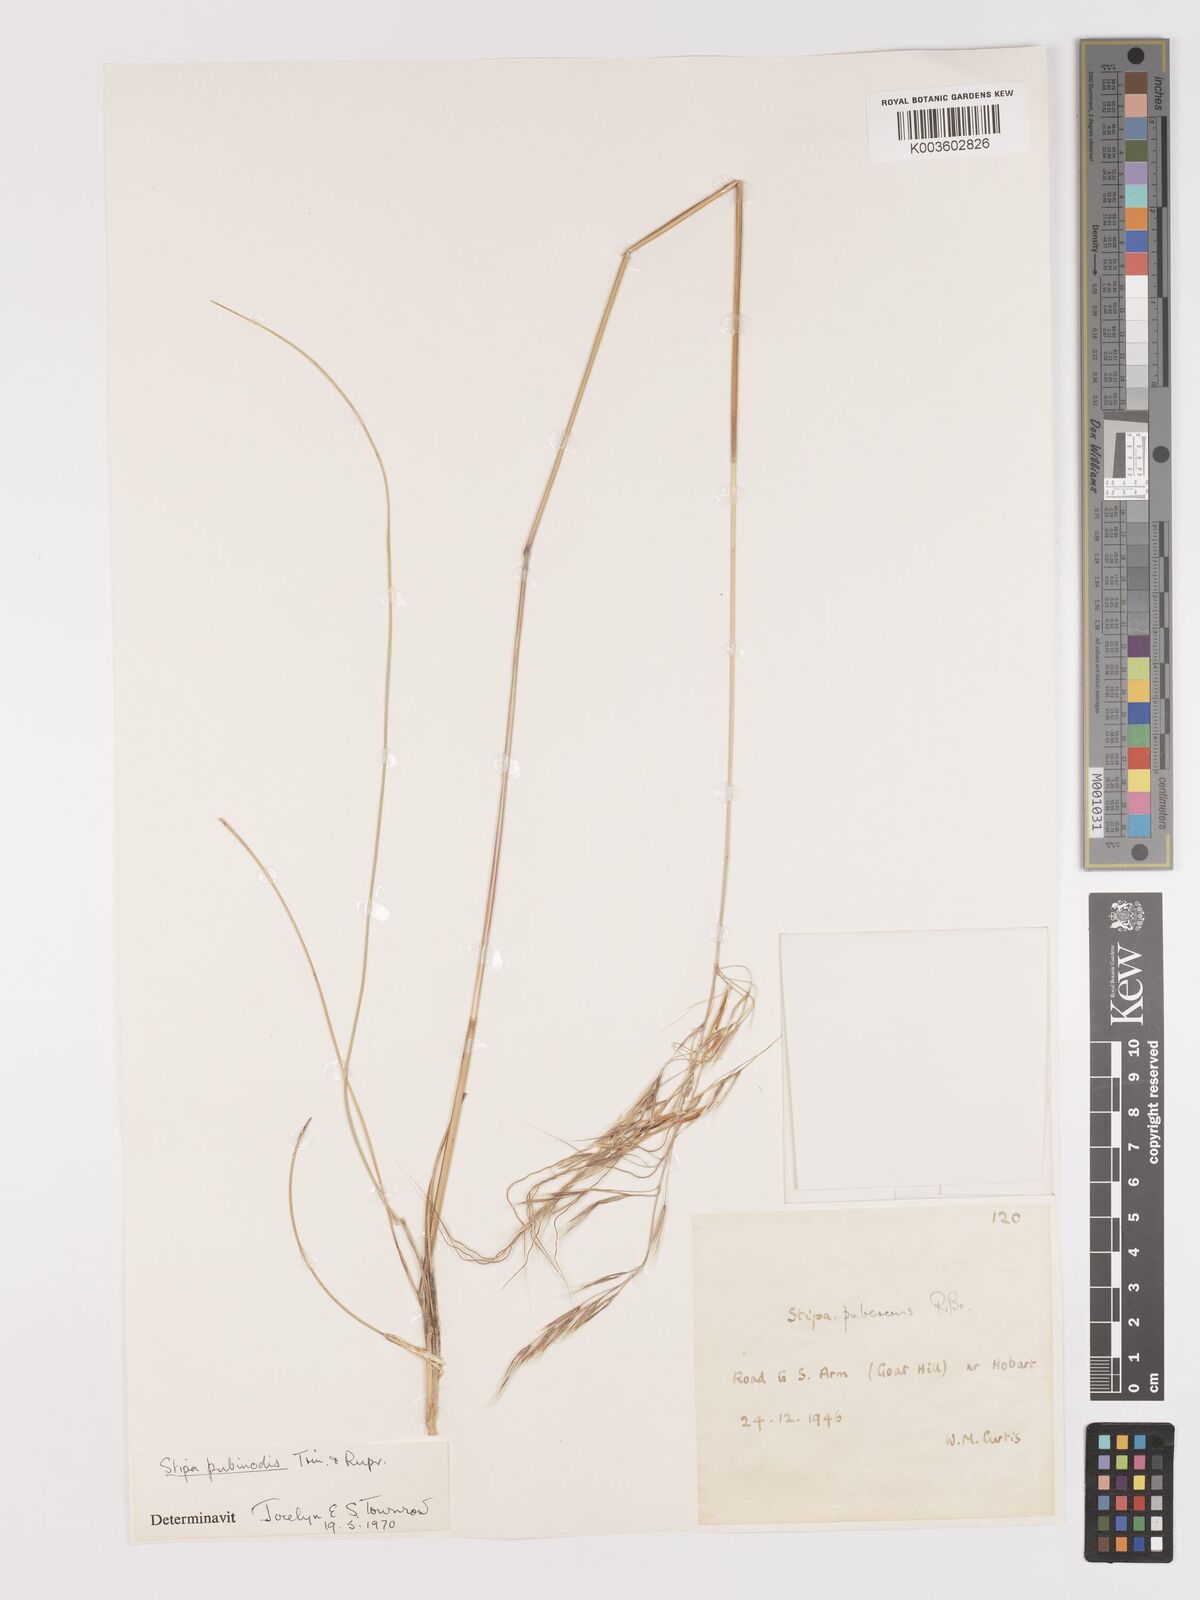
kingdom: Plantae
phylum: Tracheophyta
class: Liliopsida
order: Poales
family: Poaceae
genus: Austrostipa
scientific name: Austrostipa pubinodis
